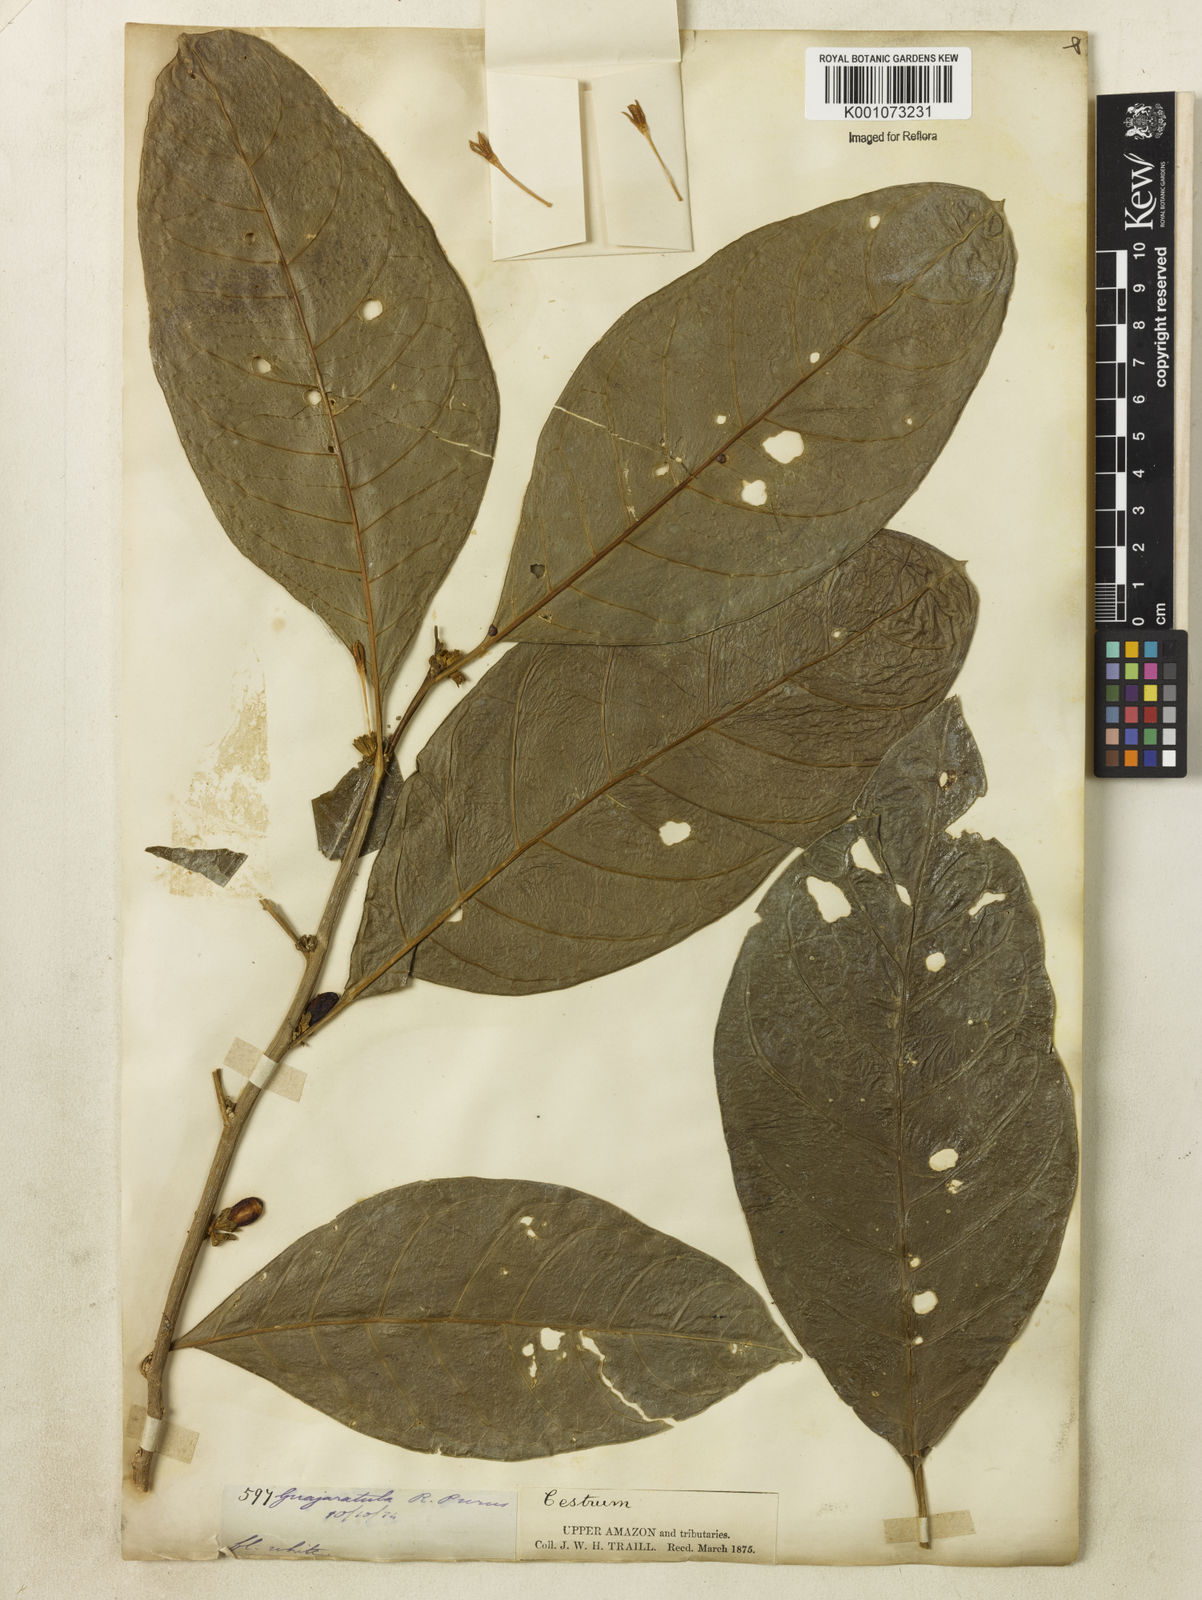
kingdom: Plantae
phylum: Tracheophyta
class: Magnoliopsida
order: Solanales
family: Solanaceae
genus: Cestrum
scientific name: Cestrum
